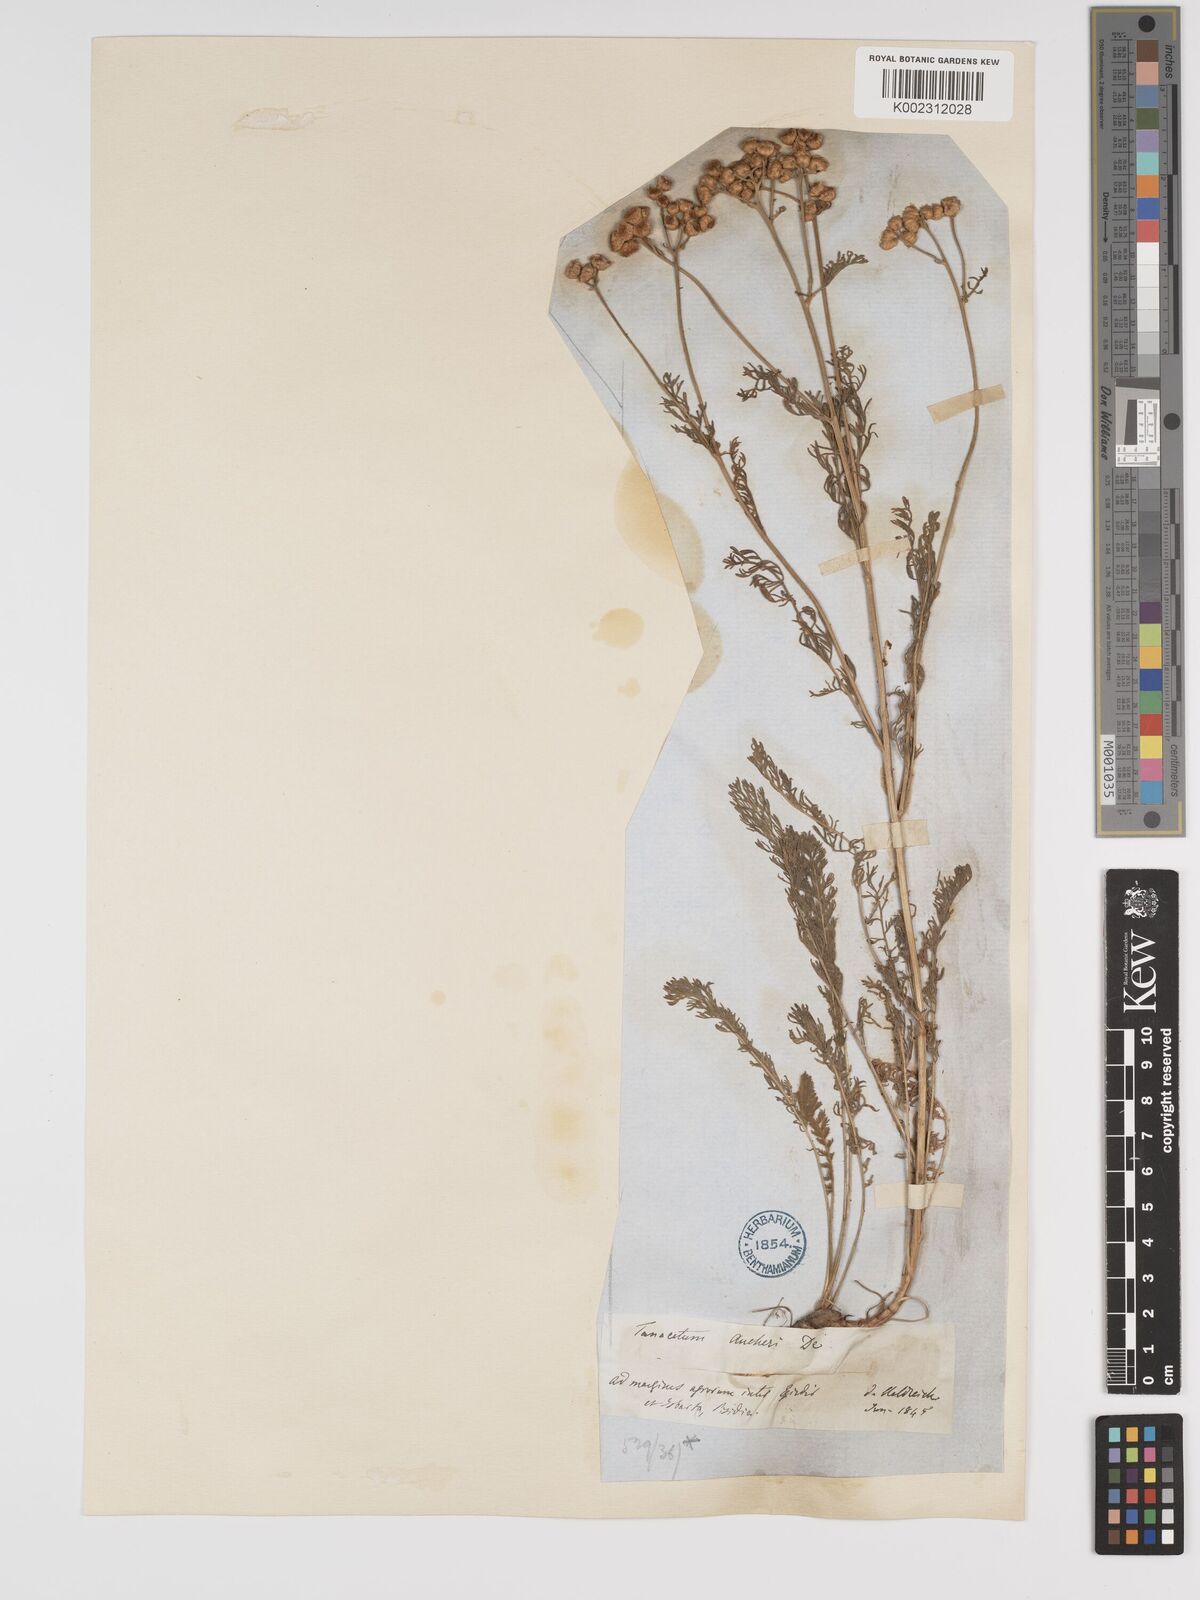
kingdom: Plantae
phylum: Tracheophyta
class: Magnoliopsida
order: Asterales
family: Asteraceae
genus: Tanacetum
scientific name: Tanacetum aucheri
